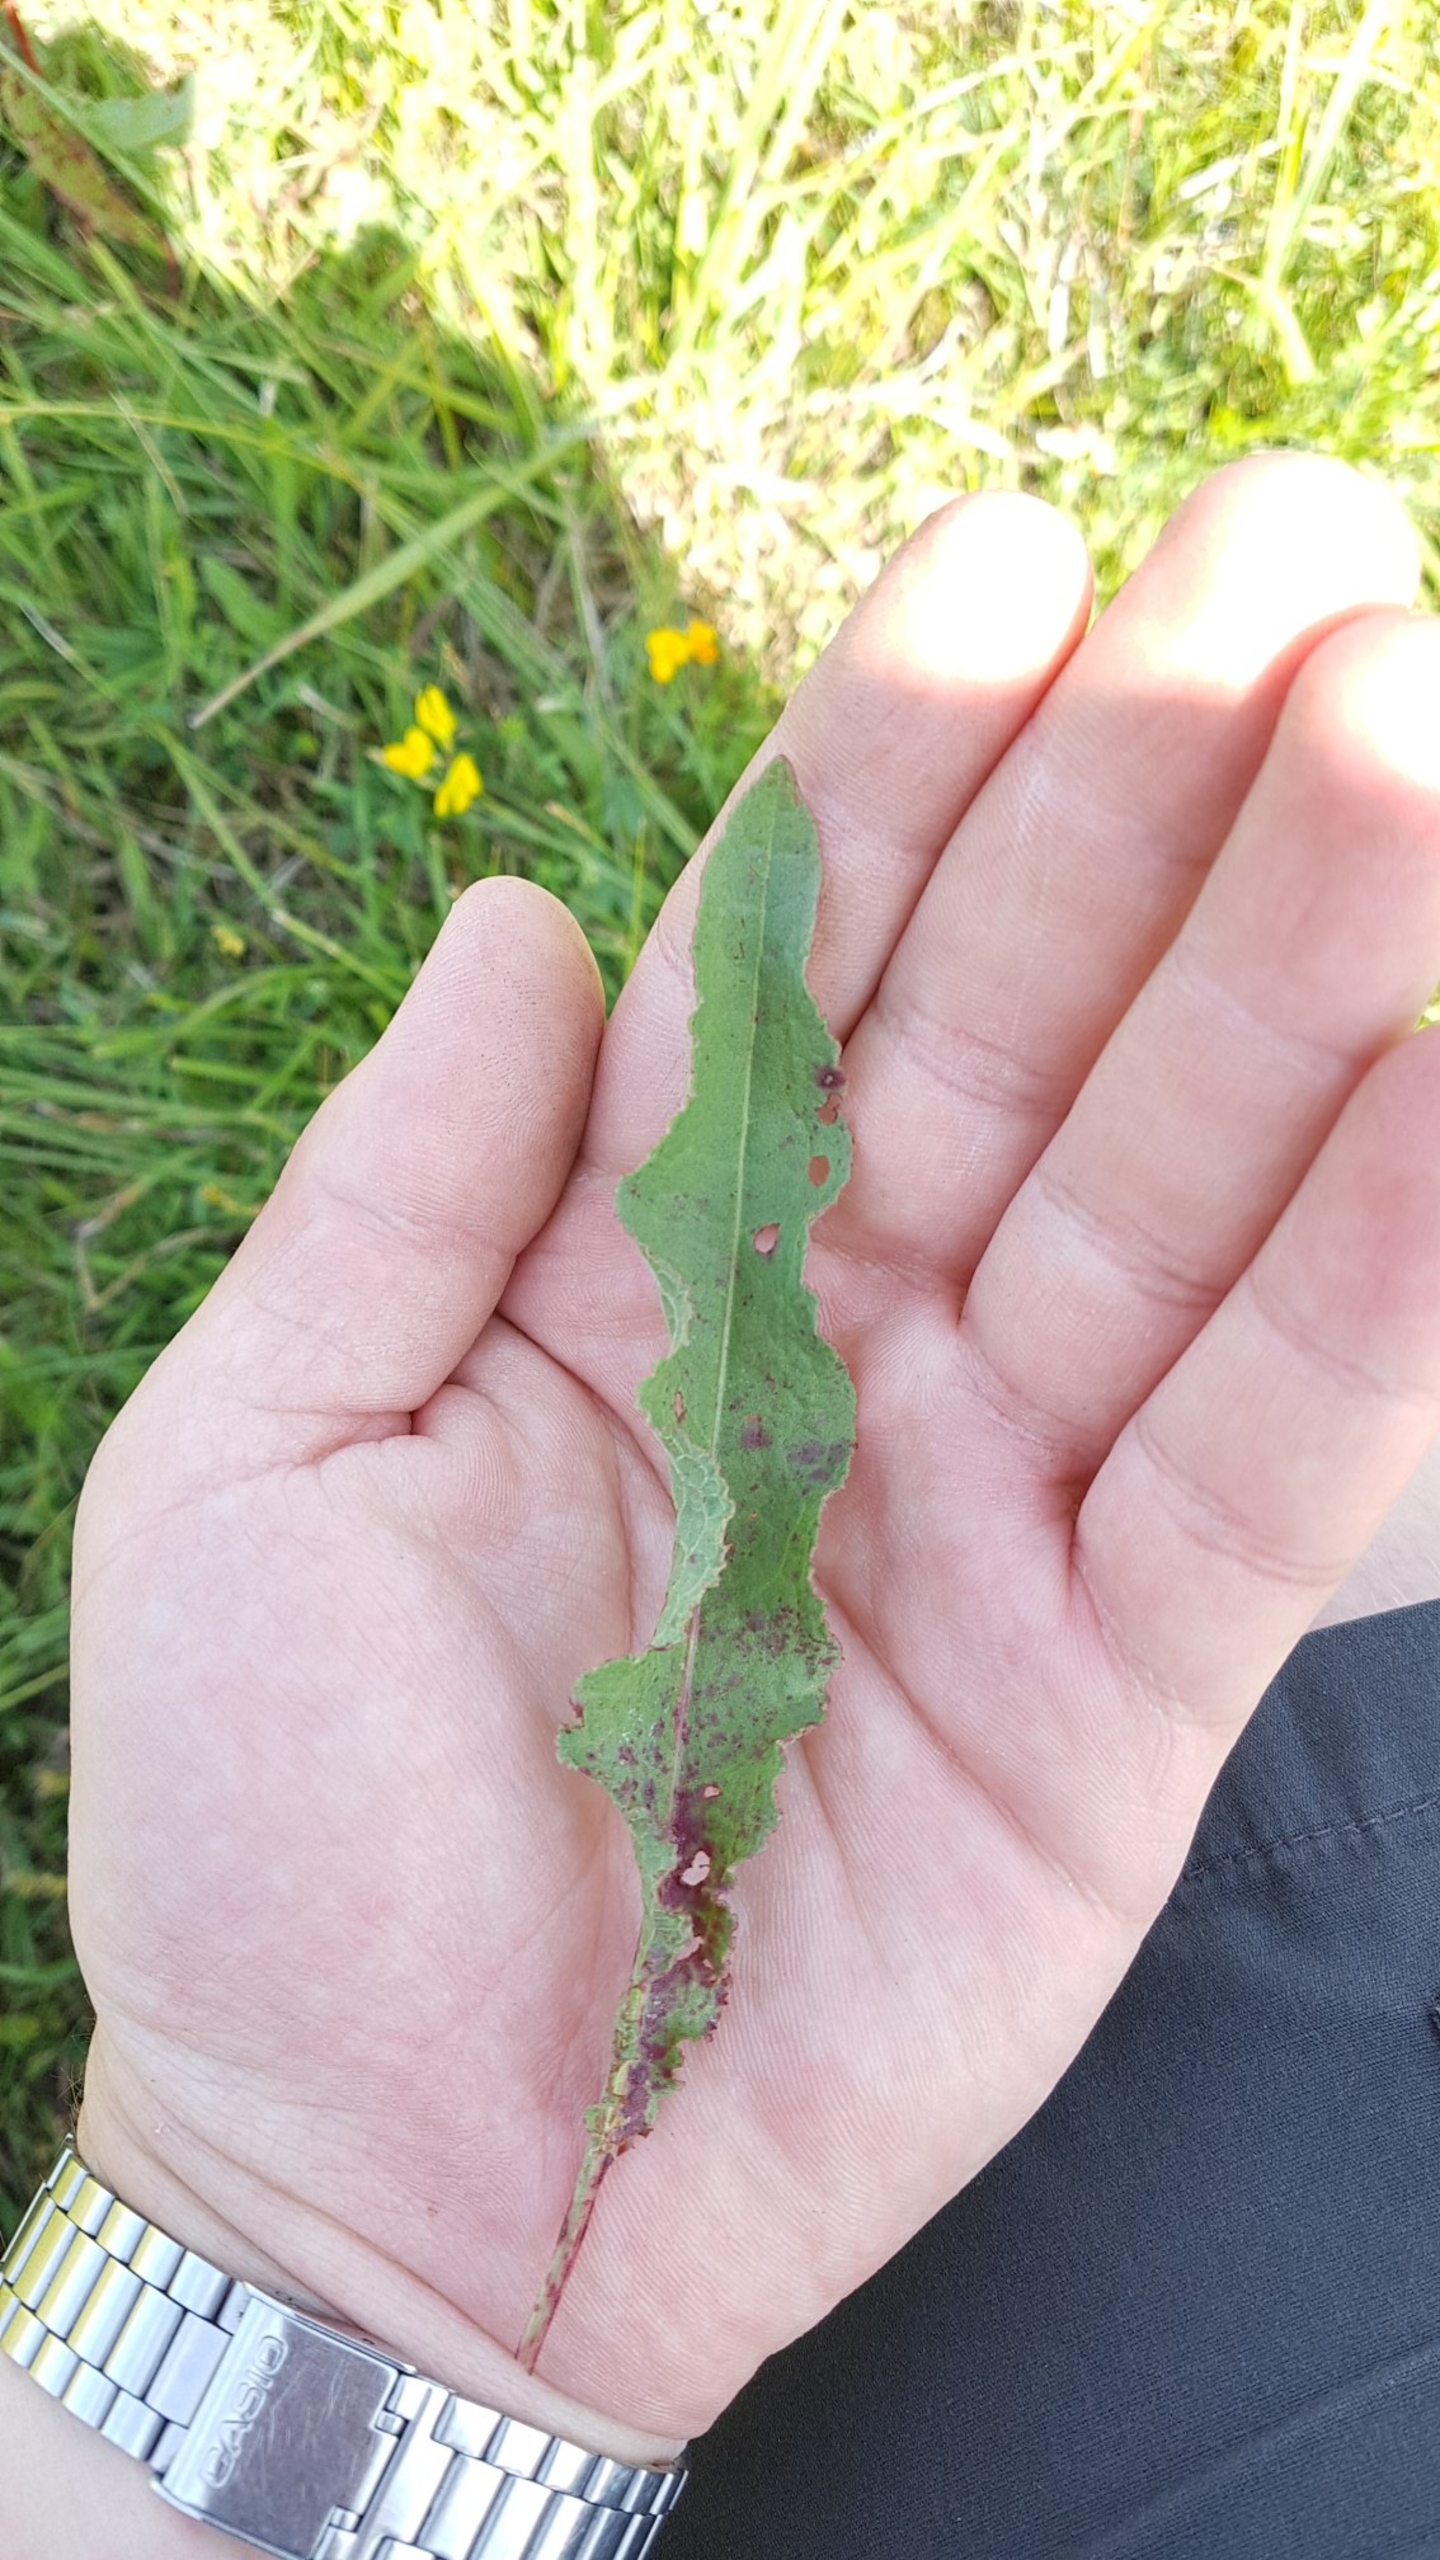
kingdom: Plantae
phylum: Tracheophyta
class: Magnoliopsida
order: Caryophyllales
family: Polygonaceae
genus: Rumex
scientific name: Rumex crispus
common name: Kruset skræppe
